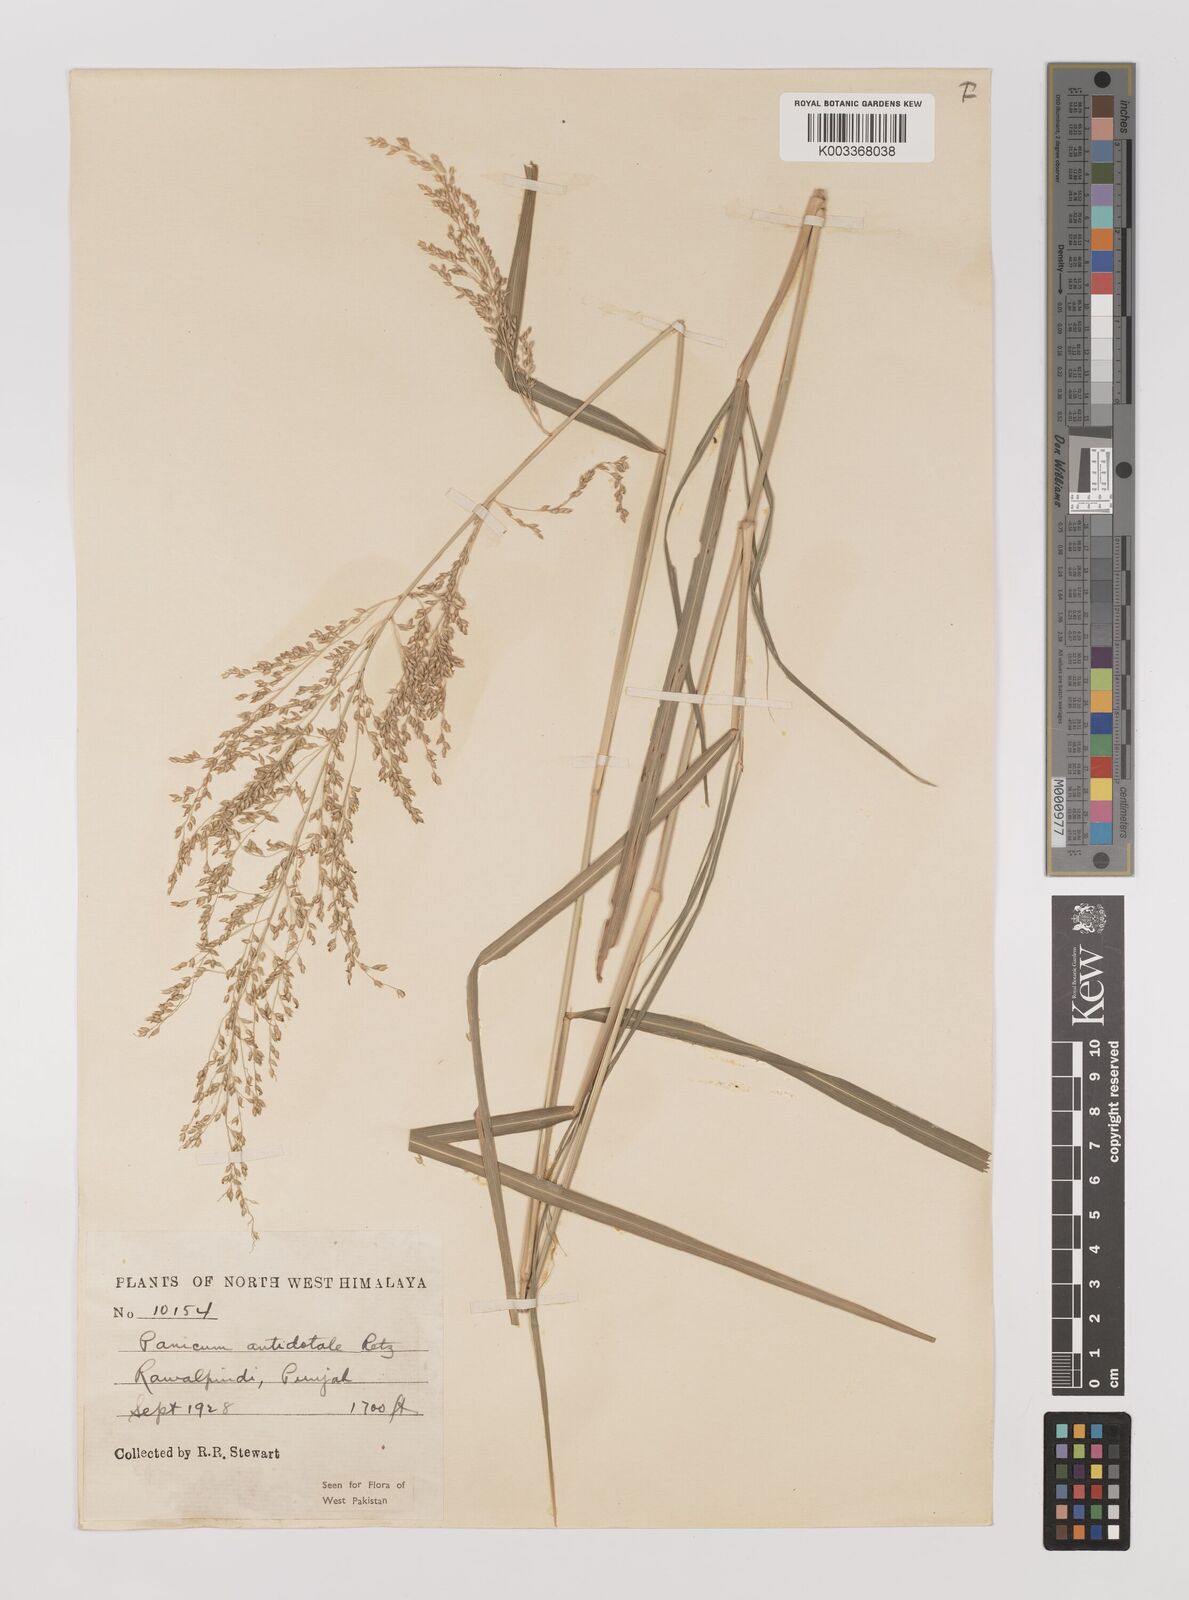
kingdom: Plantae
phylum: Tracheophyta
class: Liliopsida
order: Poales
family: Poaceae
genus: Panicum
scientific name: Panicum antidotale
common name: Blue panicum
